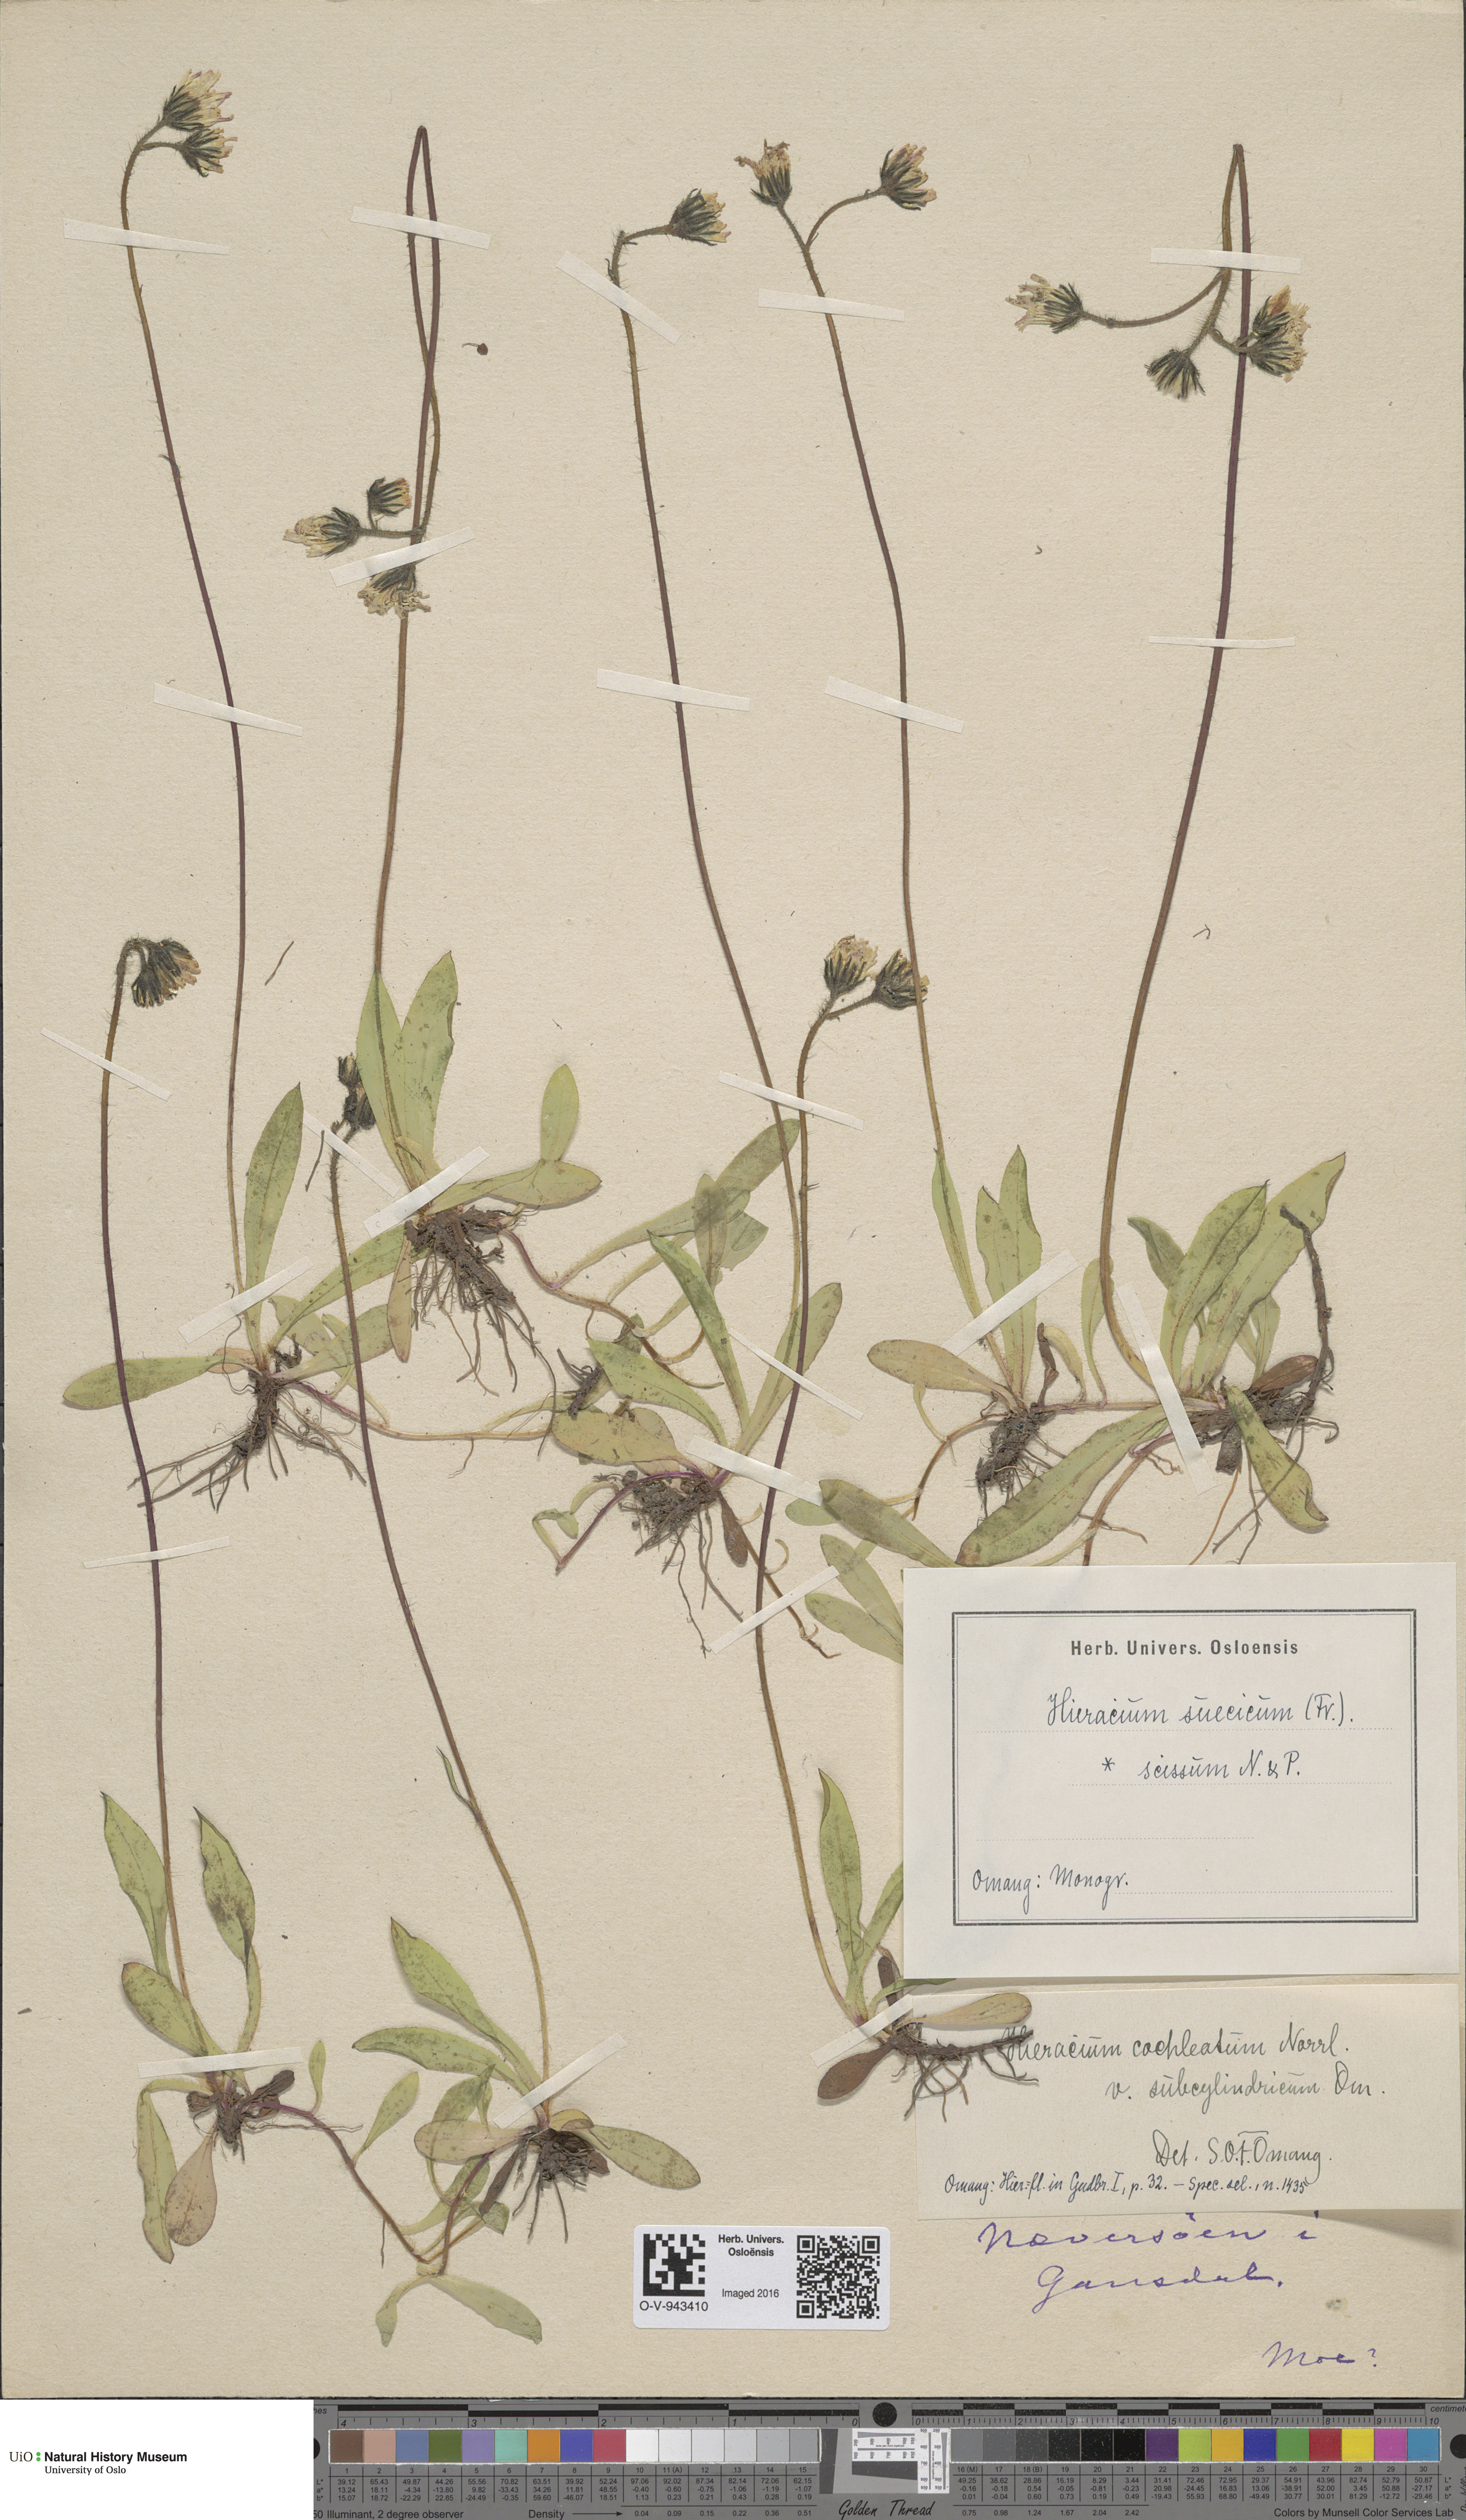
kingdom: Plantae
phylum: Tracheophyta
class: Magnoliopsida
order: Asterales
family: Asteraceae
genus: Pilosella
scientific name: Pilosella dubia
